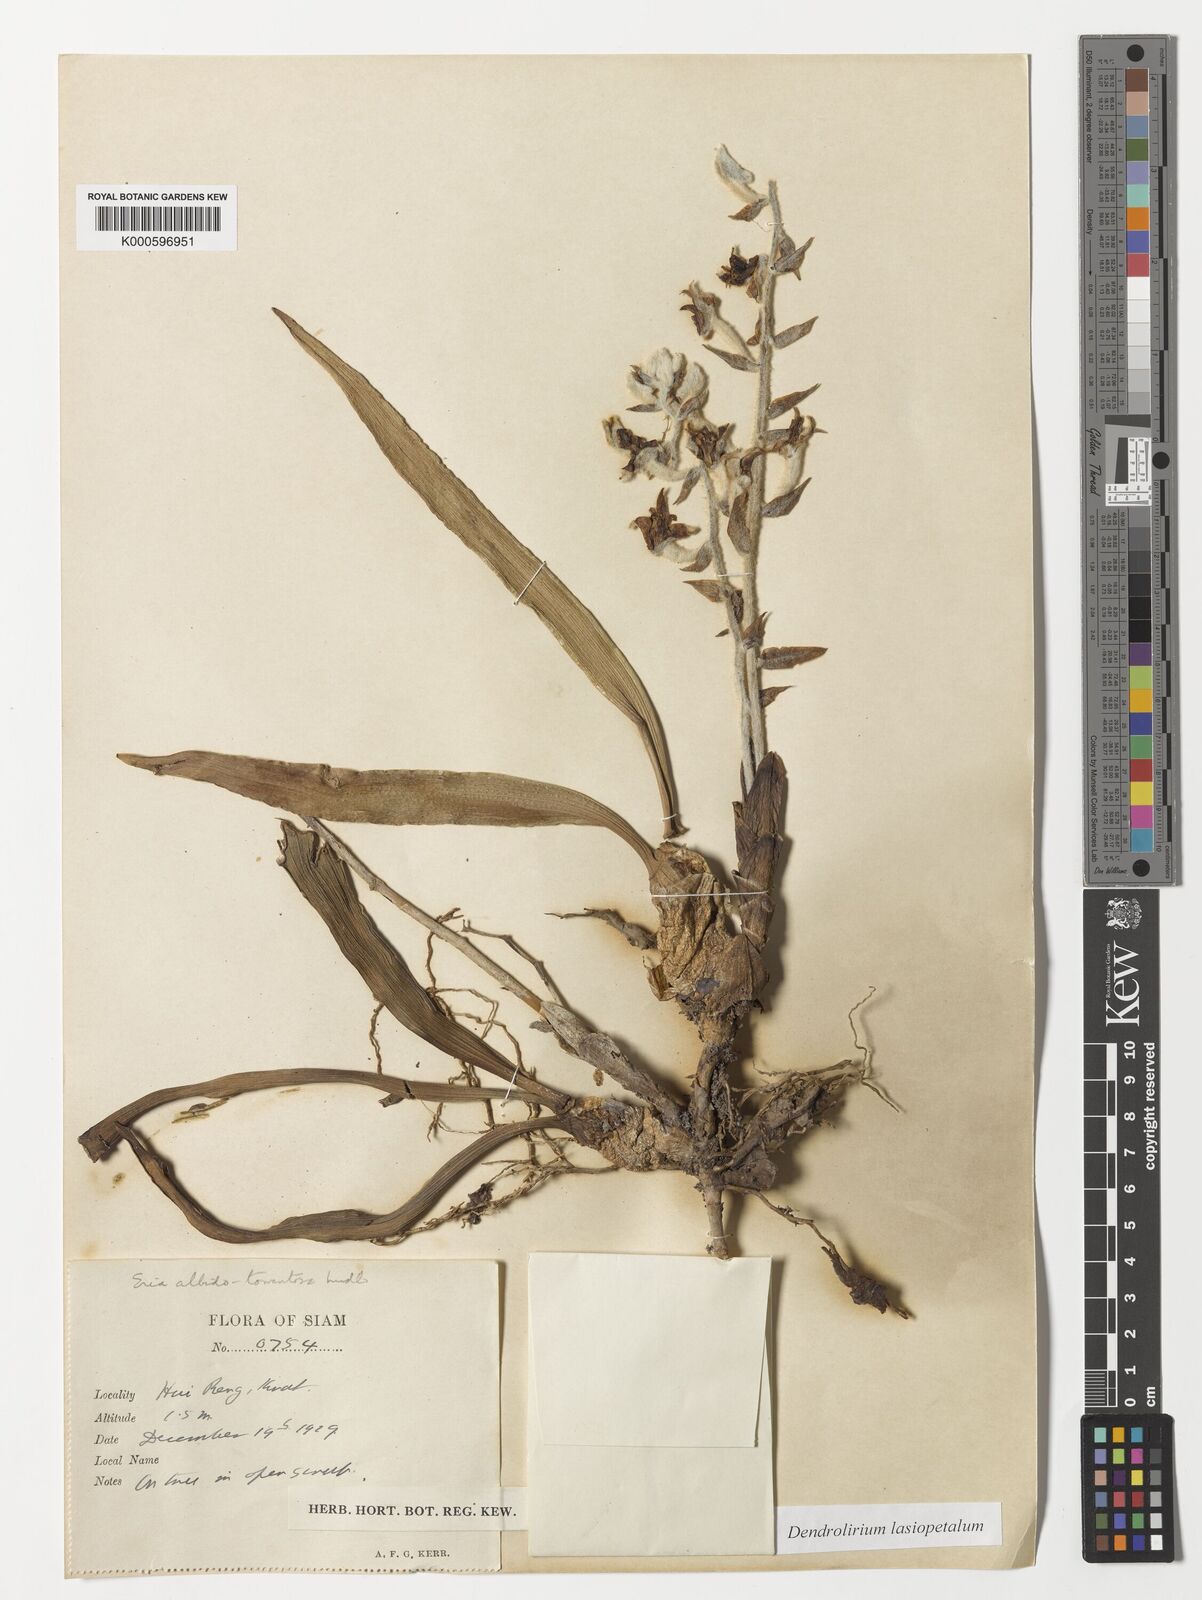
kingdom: Plantae
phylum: Tracheophyta
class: Liliopsida
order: Asparagales
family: Orchidaceae
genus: Dendrolirium
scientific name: Dendrolirium lasiopetalum
